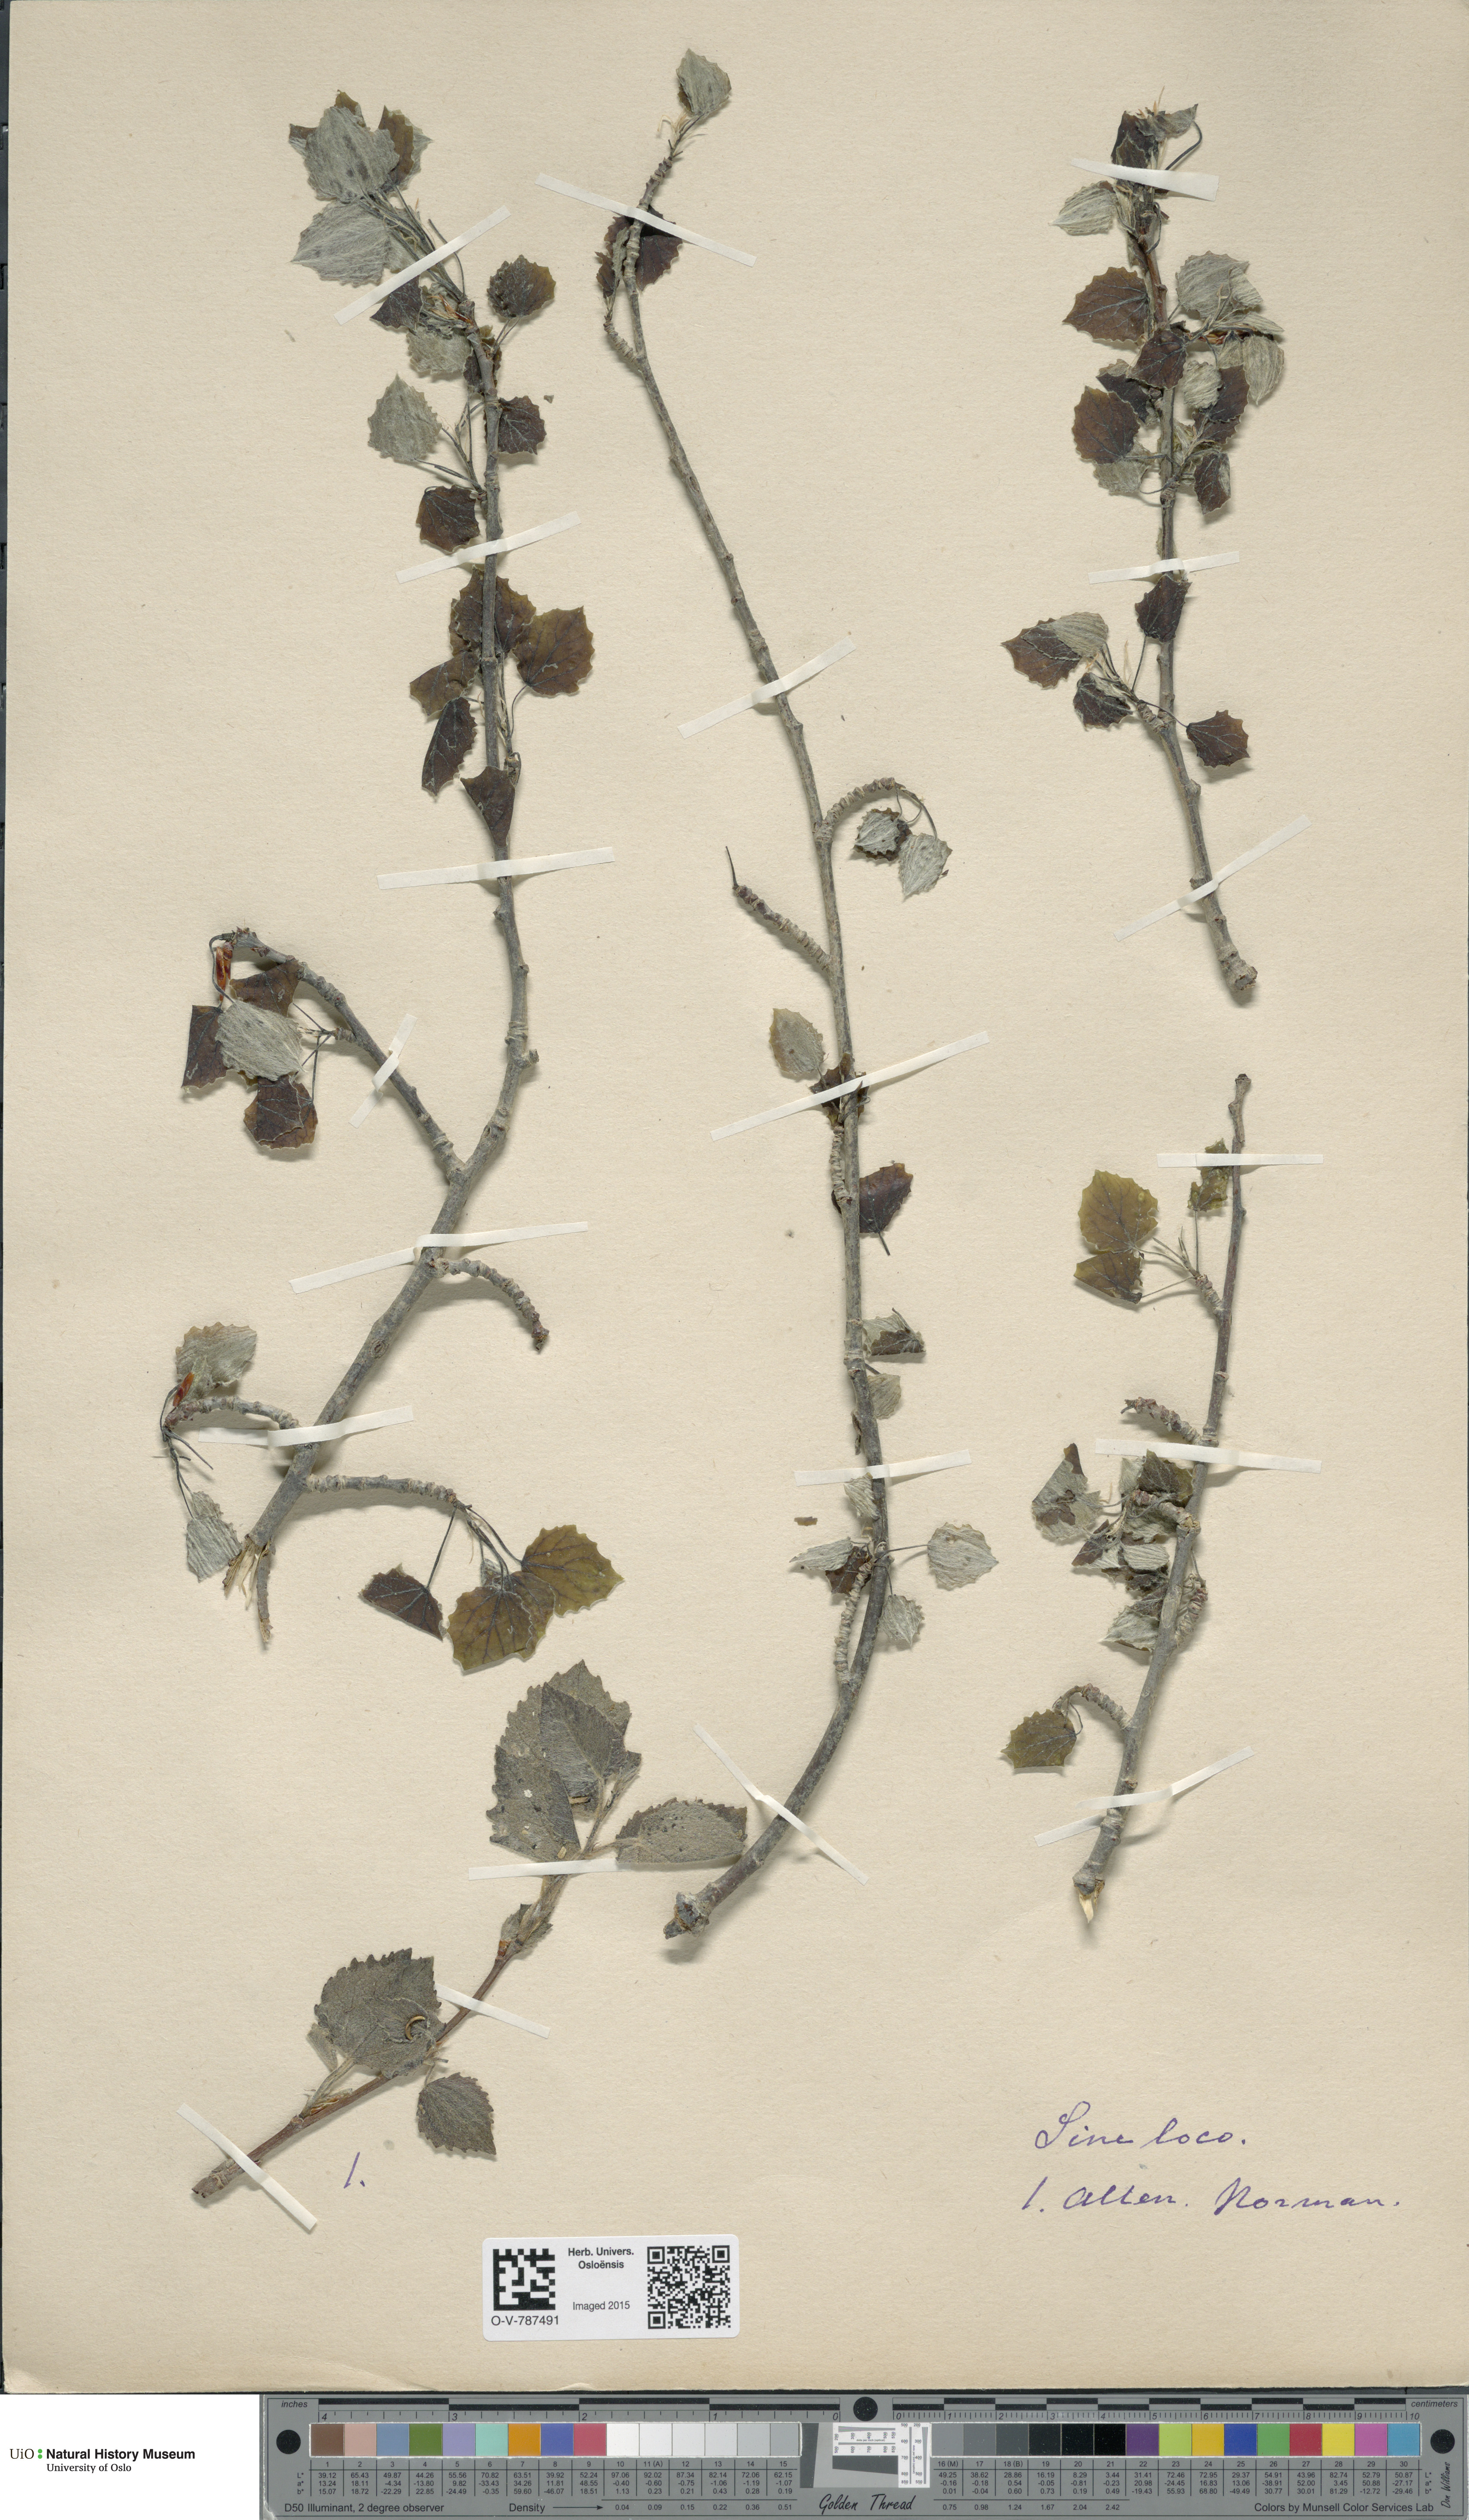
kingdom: Plantae
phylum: Tracheophyta
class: Magnoliopsida
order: Malpighiales
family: Salicaceae
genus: Populus
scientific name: Populus tremula
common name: European aspen
